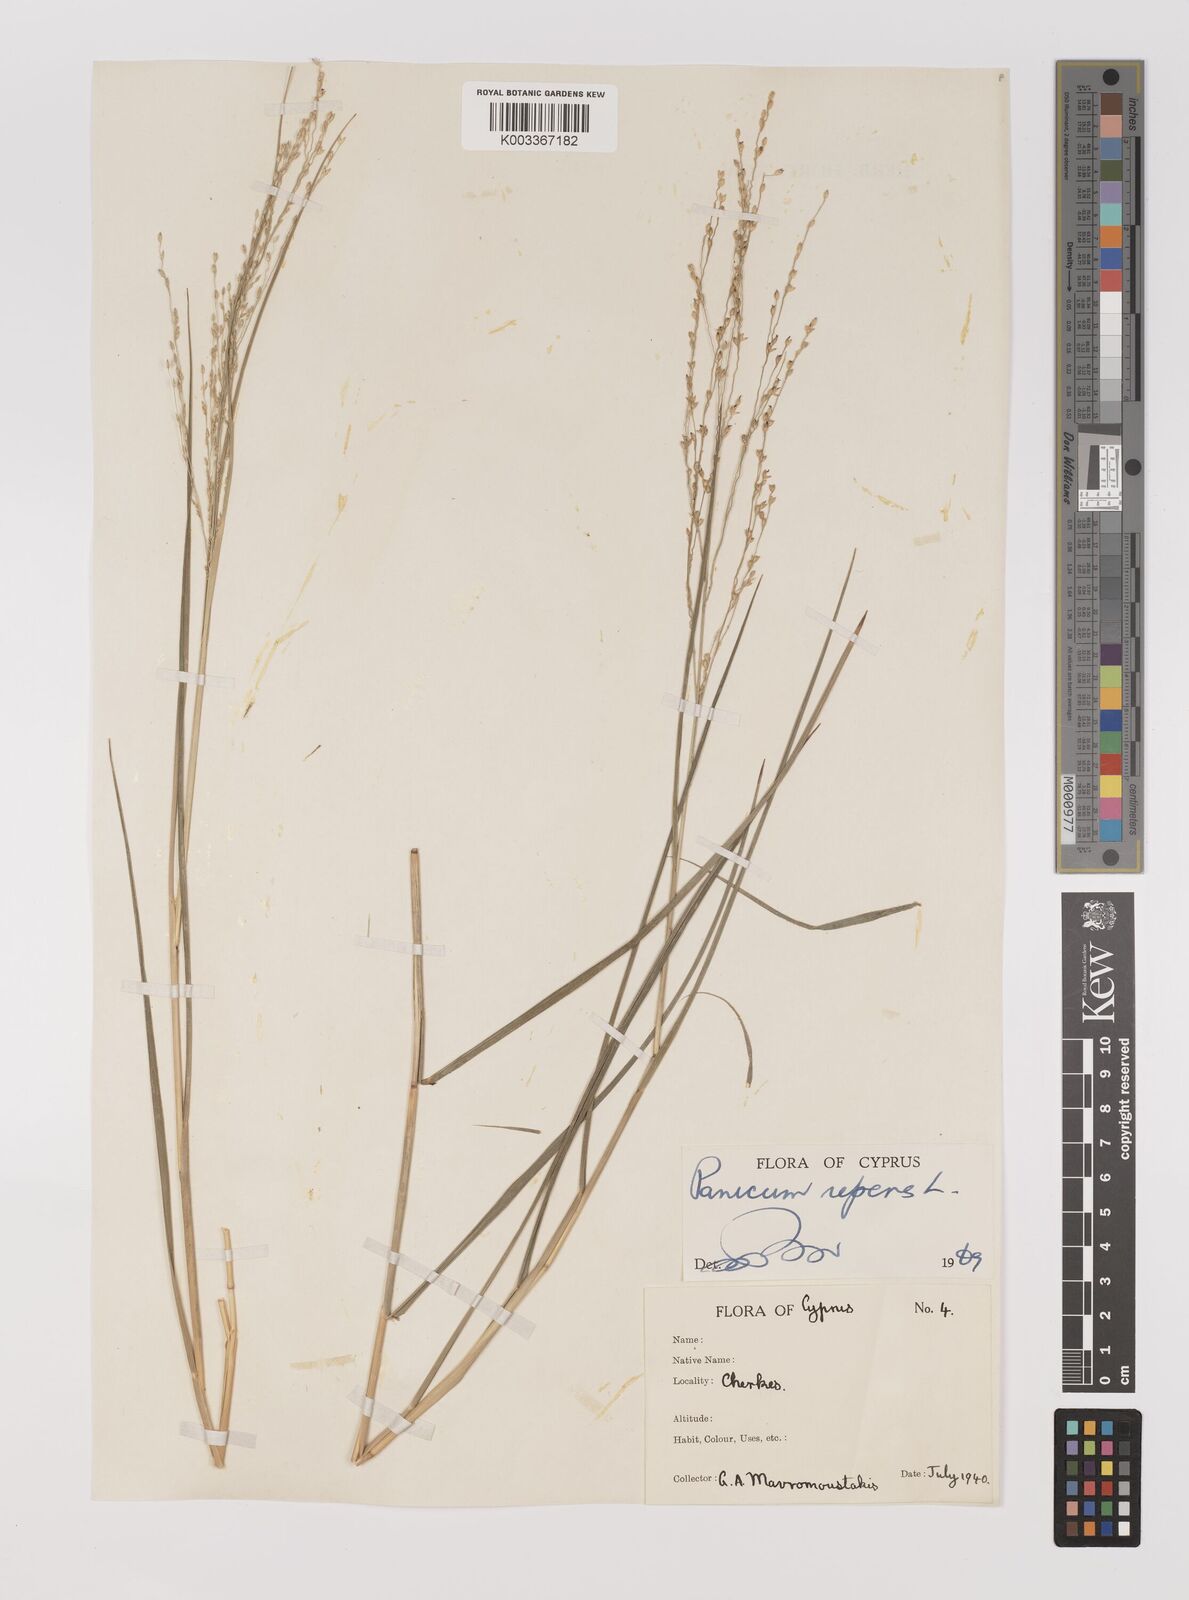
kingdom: Plantae
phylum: Tracheophyta
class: Liliopsida
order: Poales
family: Poaceae
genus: Panicum
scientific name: Panicum repens
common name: Torpedo grass
